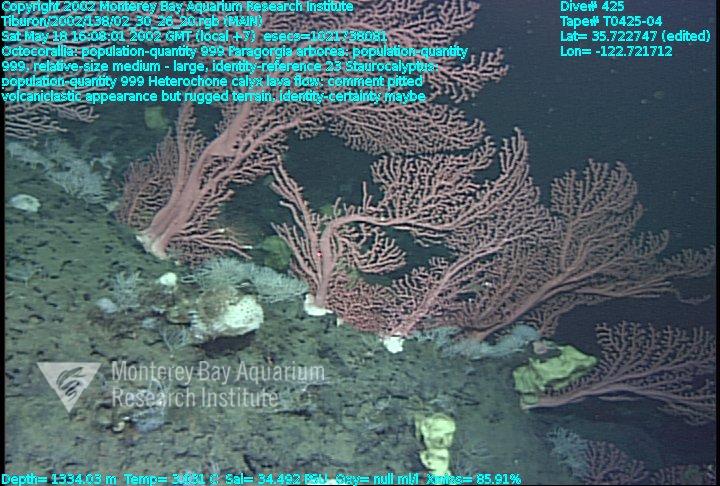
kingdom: Animalia
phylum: Porifera
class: Hexactinellida
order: Lyssacinosida
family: Rossellidae
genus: Staurocalyptus
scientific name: Staurocalyptus
